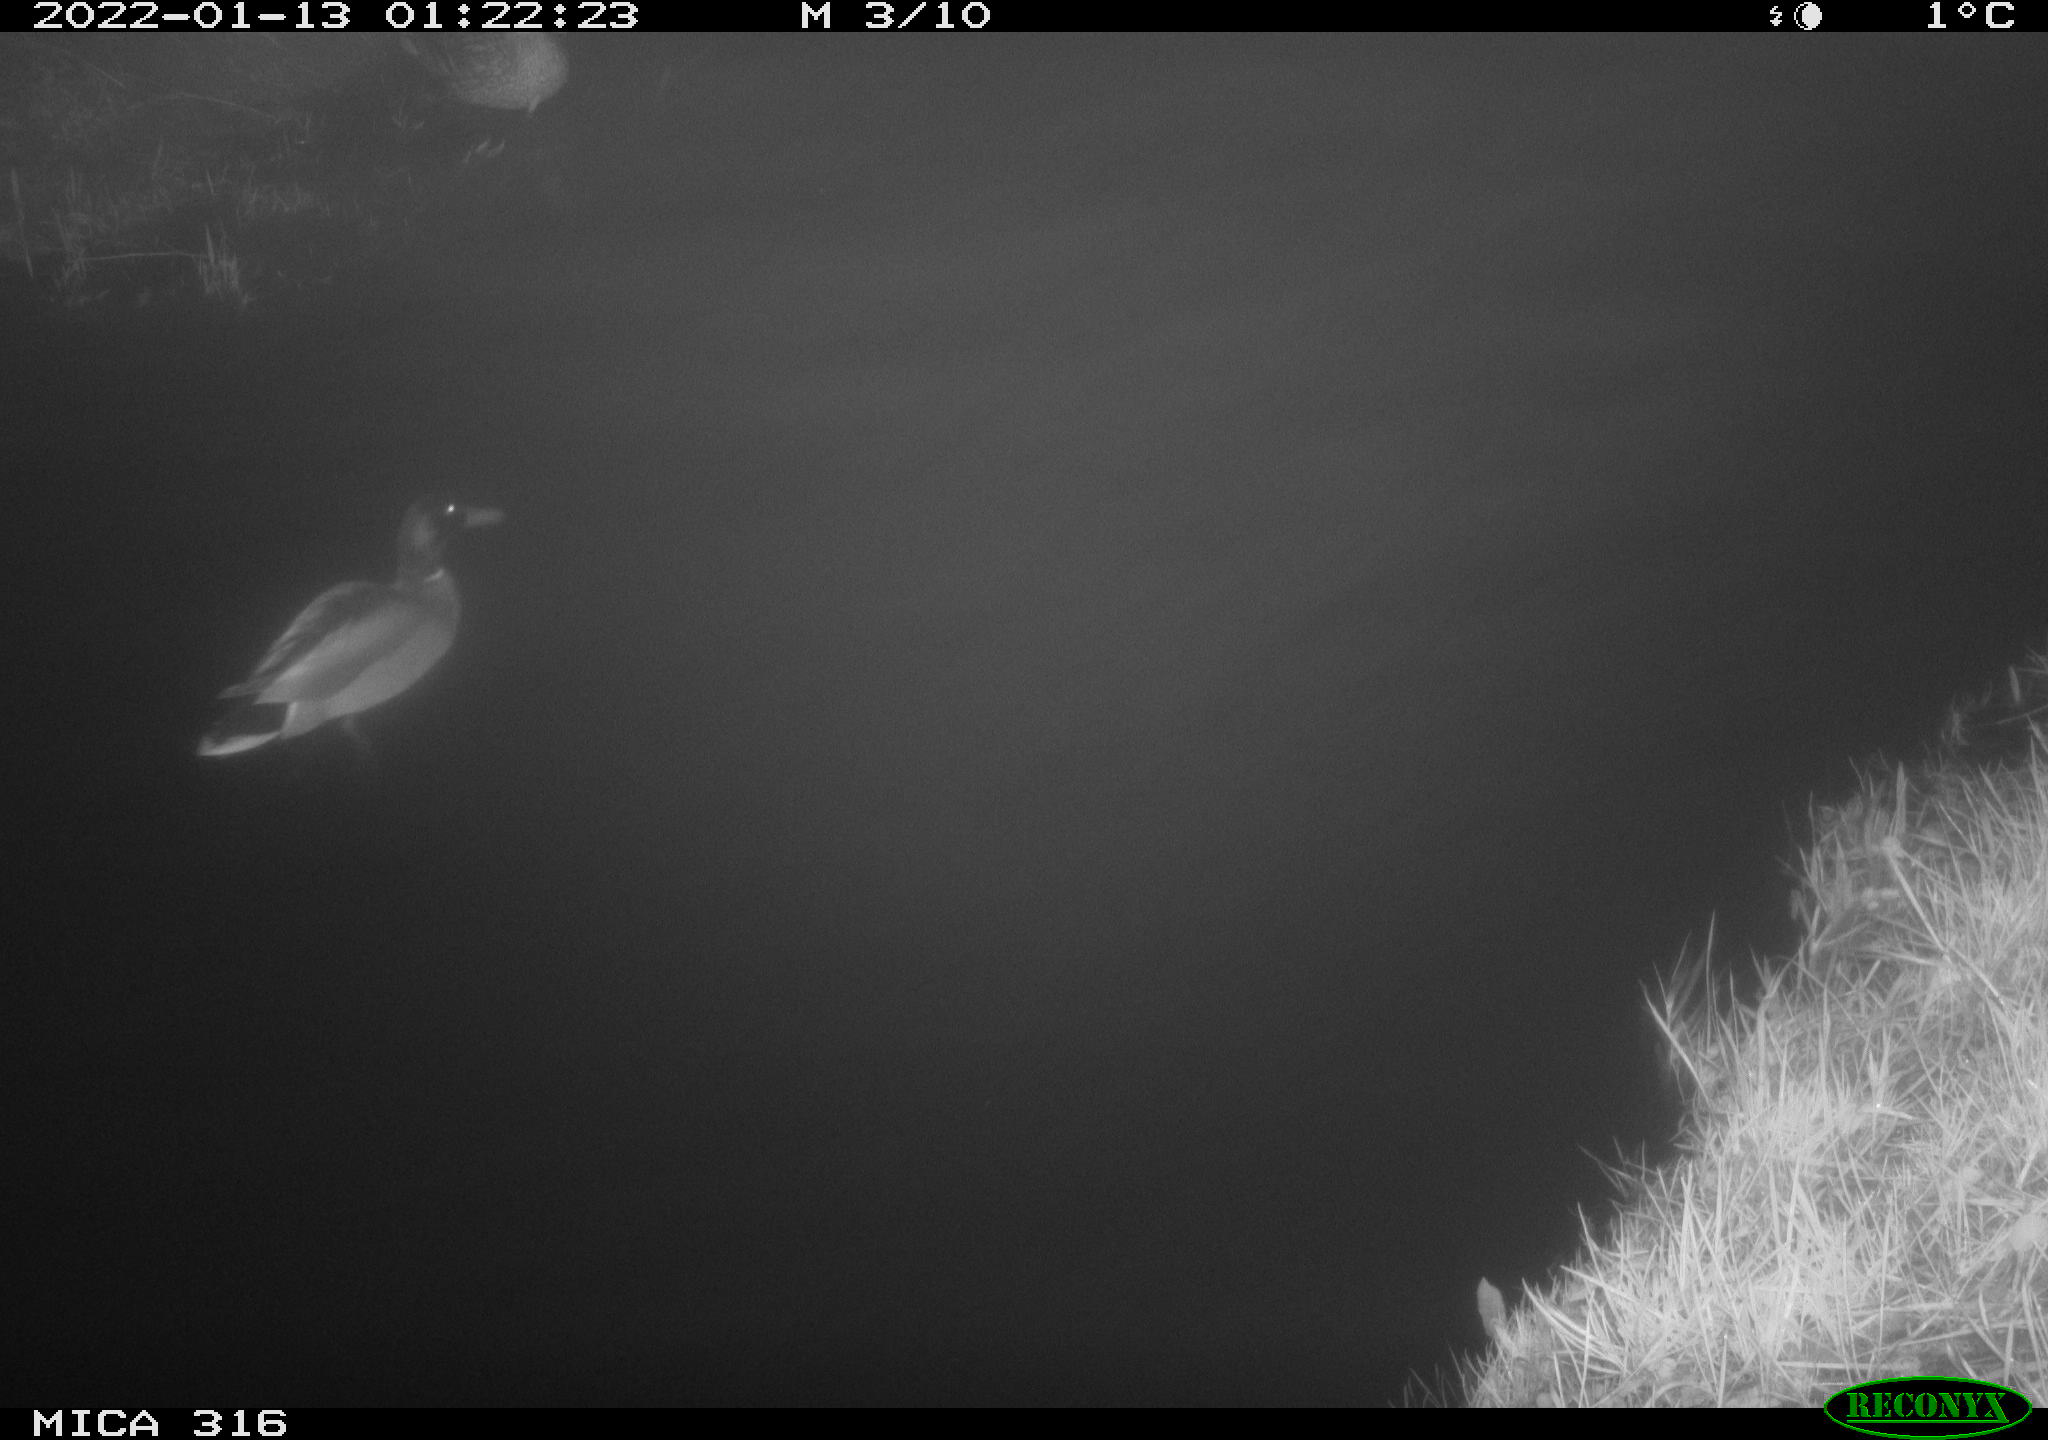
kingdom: Animalia
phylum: Chordata
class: Aves
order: Anseriformes
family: Anatidae
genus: Anas
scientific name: Anas
